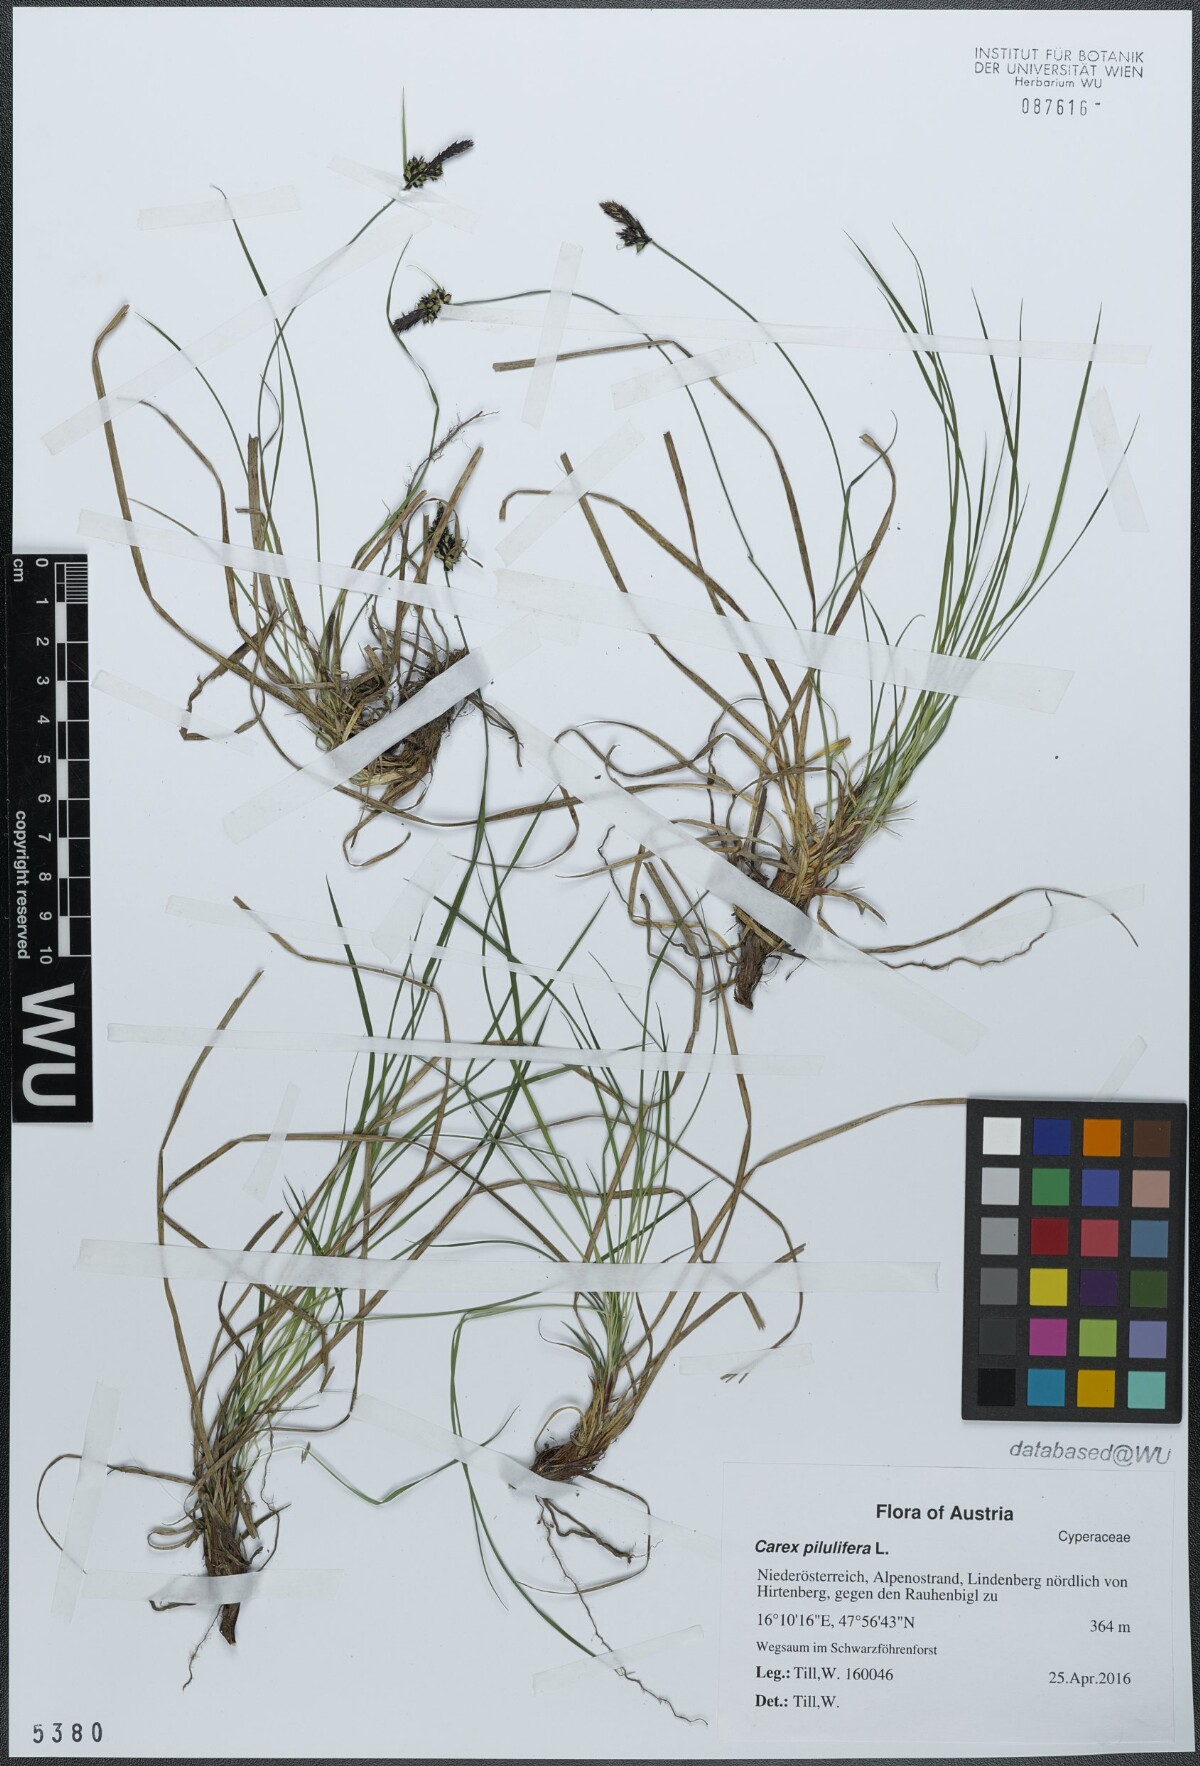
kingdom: Plantae
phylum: Tracheophyta
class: Liliopsida
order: Poales
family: Cyperaceae
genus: Carex
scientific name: Carex pilulifera
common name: Pill sedge
